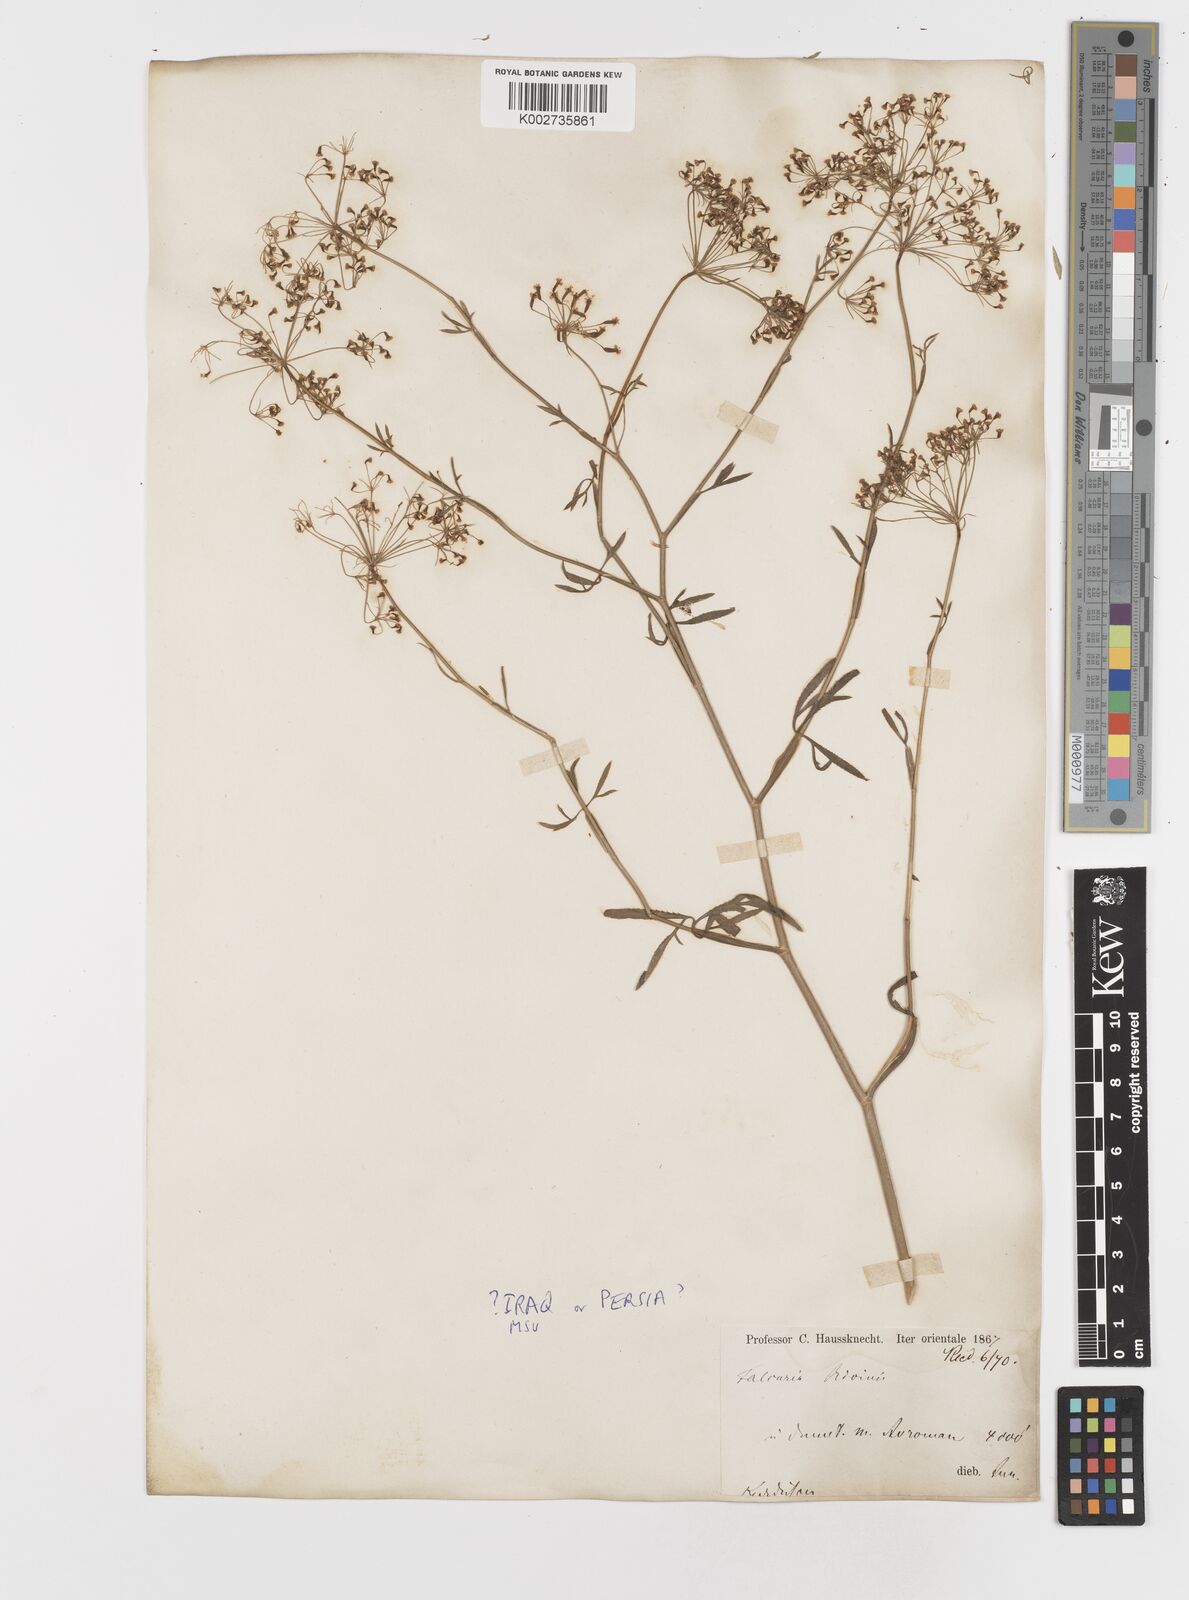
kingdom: Plantae
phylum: Tracheophyta
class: Magnoliopsida
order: Apiales
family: Apiaceae
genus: Falcaria
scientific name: Falcaria vulgaris
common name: Longleaf
